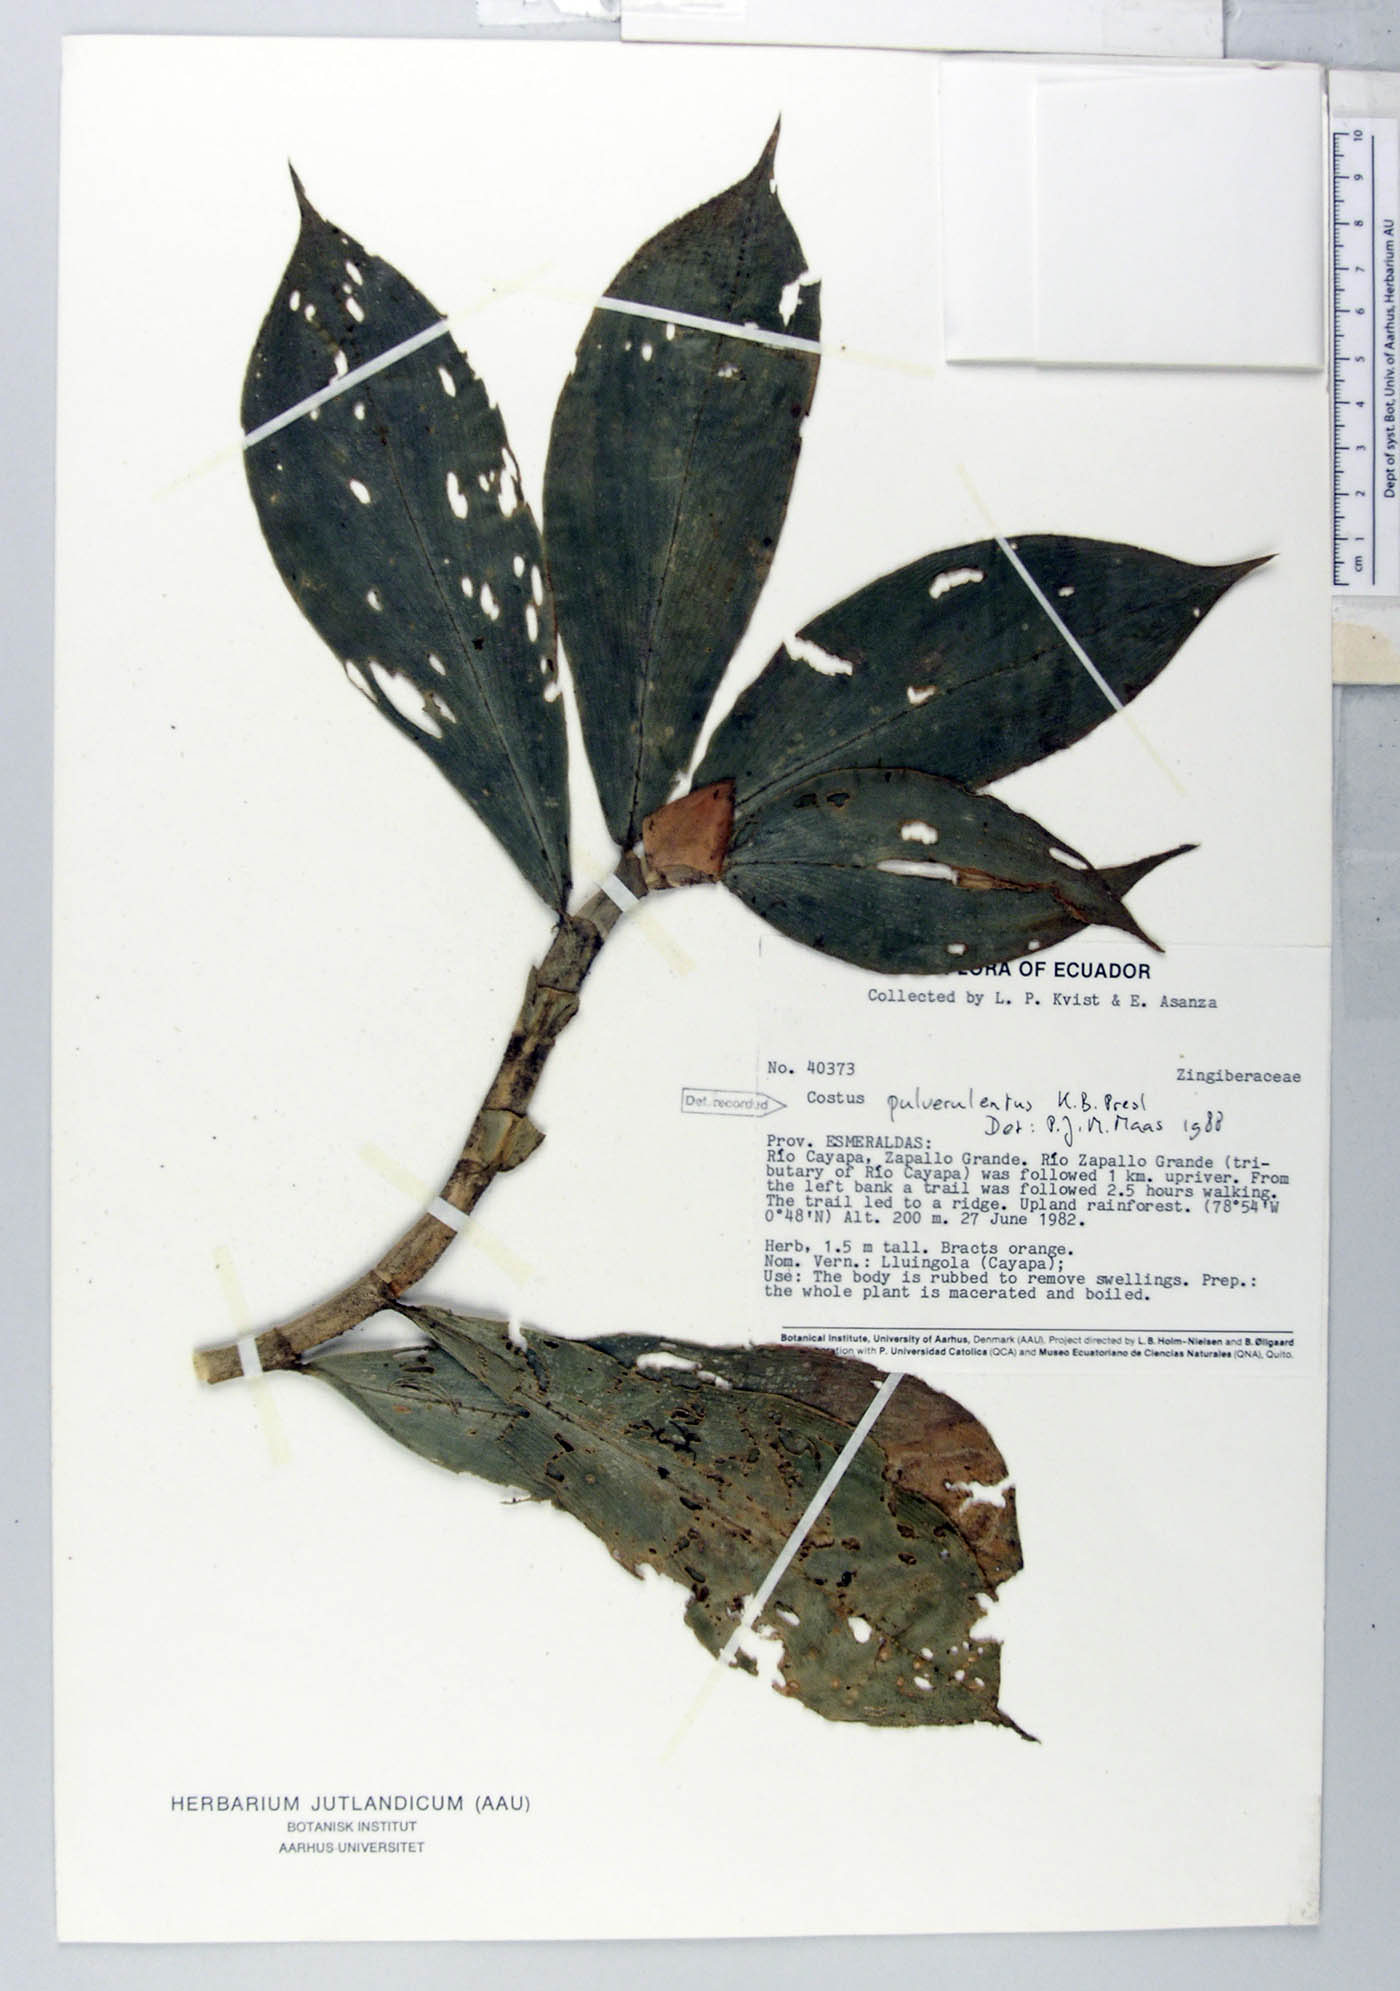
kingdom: Plantae
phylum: Tracheophyta
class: Liliopsida
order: Zingiberales
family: Costaceae
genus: Costus
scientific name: Costus pulverulentus
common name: Spiral ginger
